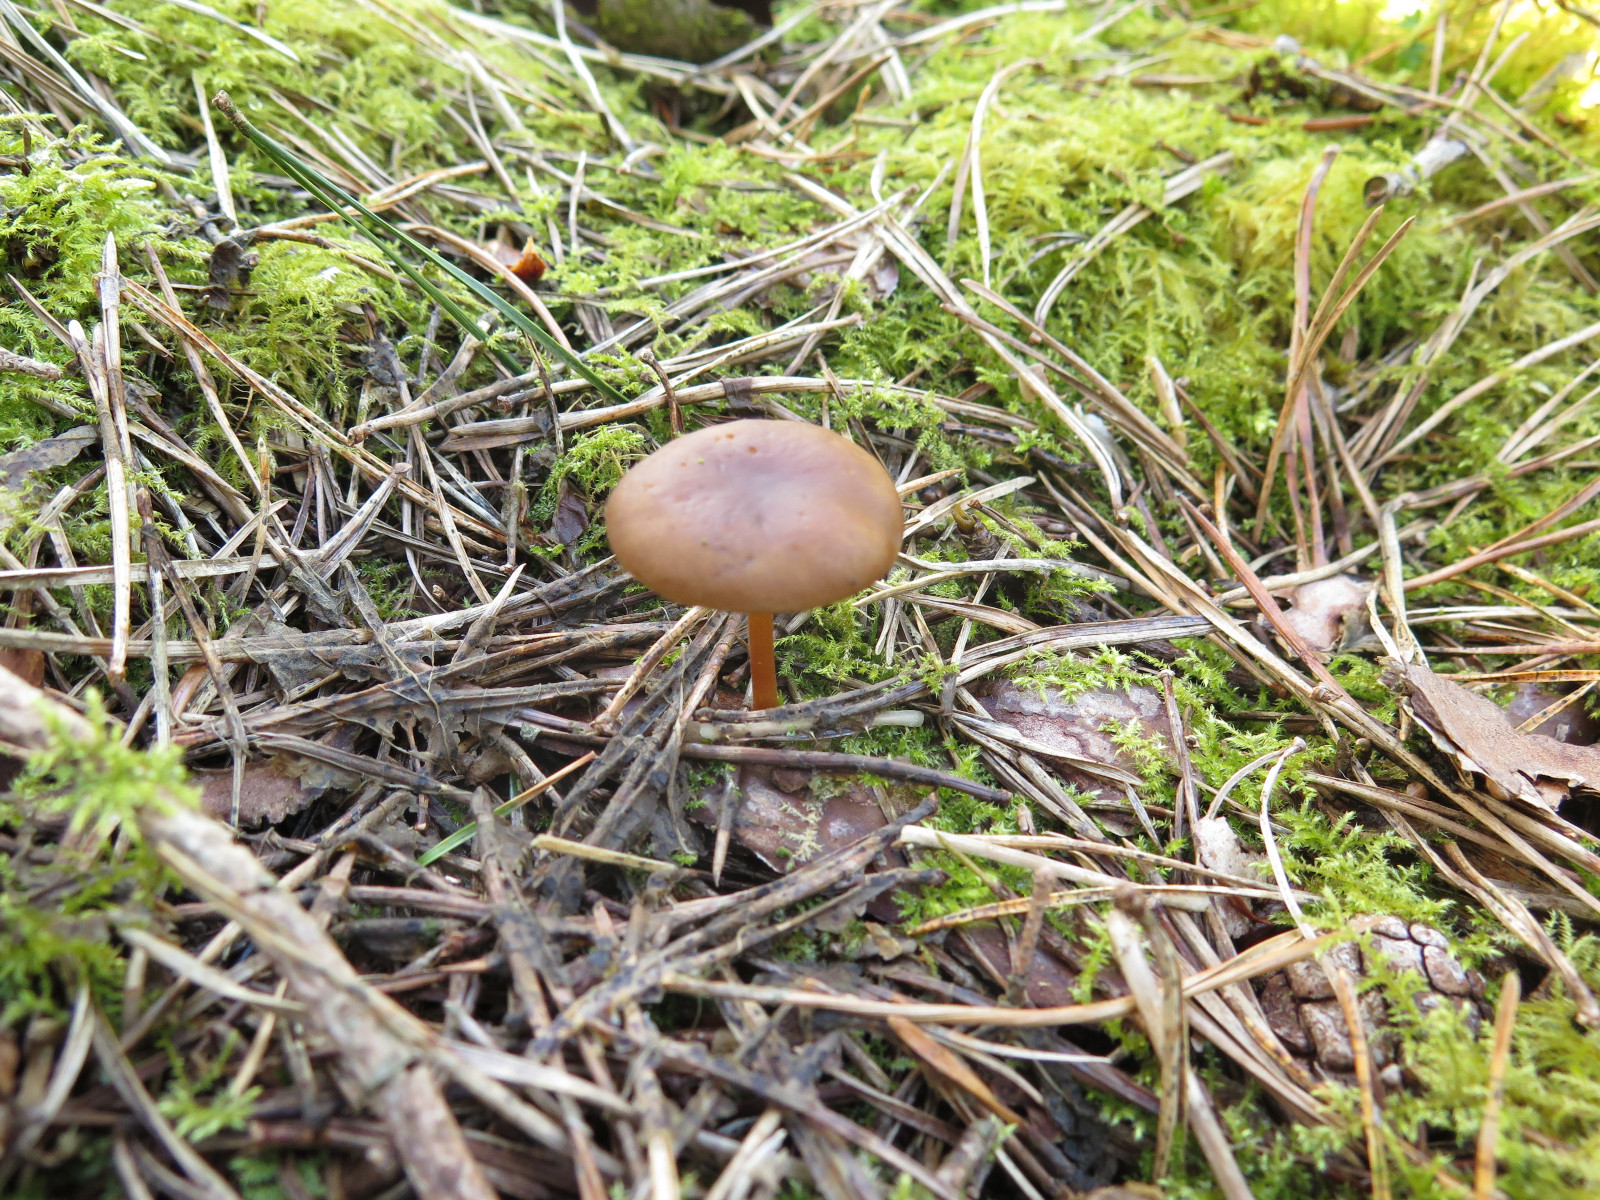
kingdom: Fungi
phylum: Basidiomycota
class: Agaricomycetes
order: Agaricales
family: Physalacriaceae
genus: Strobilurus
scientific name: Strobilurus stephanocystis
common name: fyrre-koglehat
